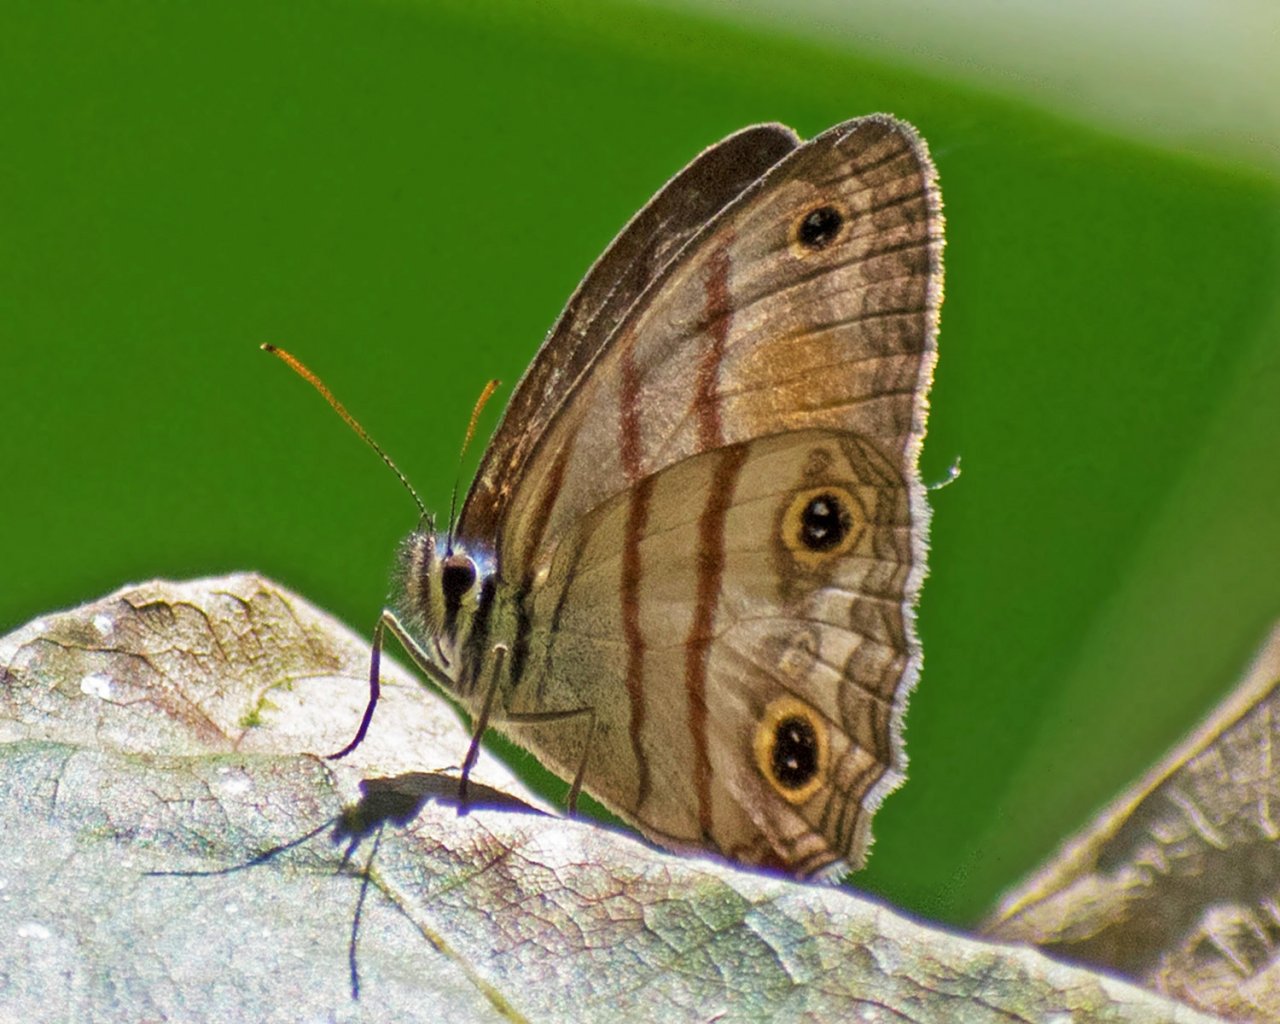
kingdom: Animalia
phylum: Arthropoda
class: Insecta
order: Lepidoptera
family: Nymphalidae
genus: Euptychia
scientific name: Euptychia Cissia labe
